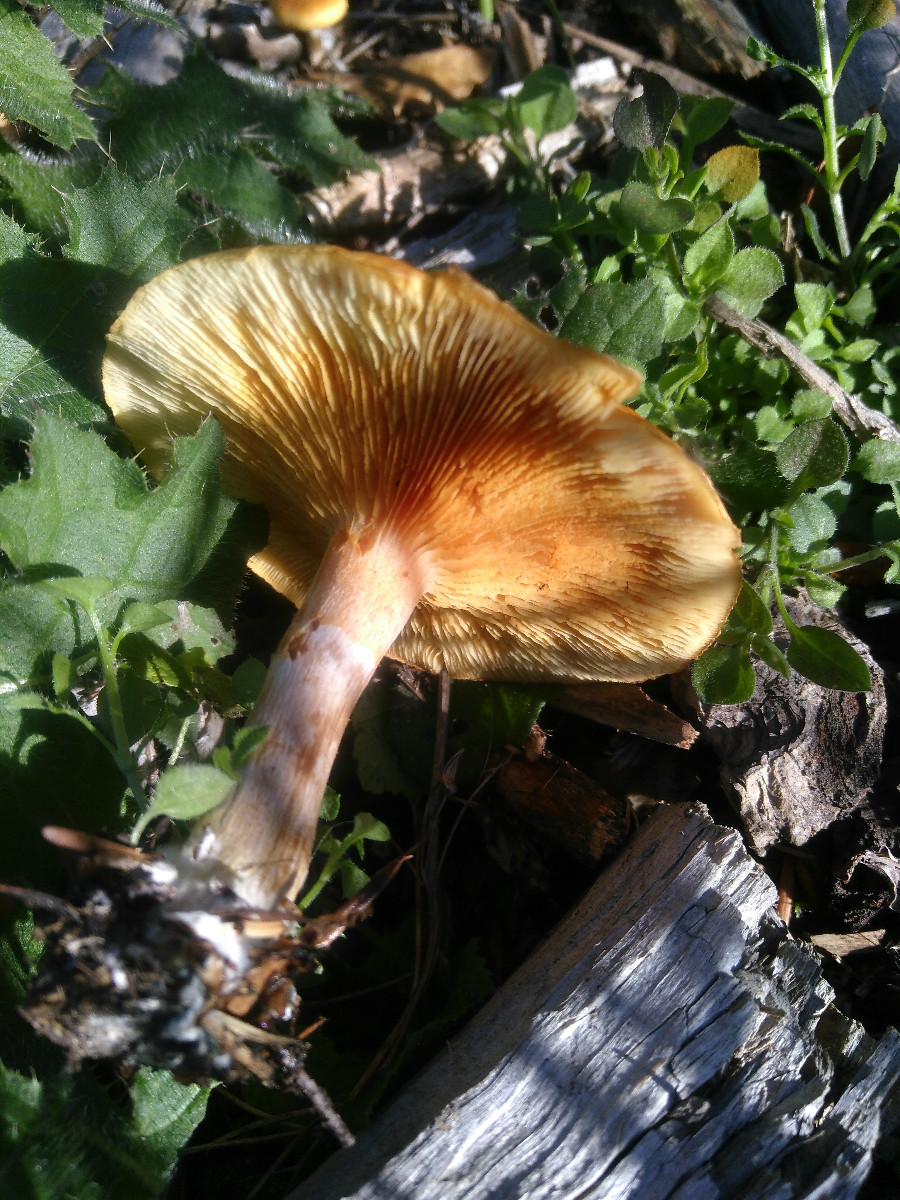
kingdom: Fungi
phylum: Basidiomycota
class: Agaricomycetes
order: Agaricales
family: Hymenogastraceae
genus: Gymnopilus
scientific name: Gymnopilus penetrans
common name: plettet flammehat
